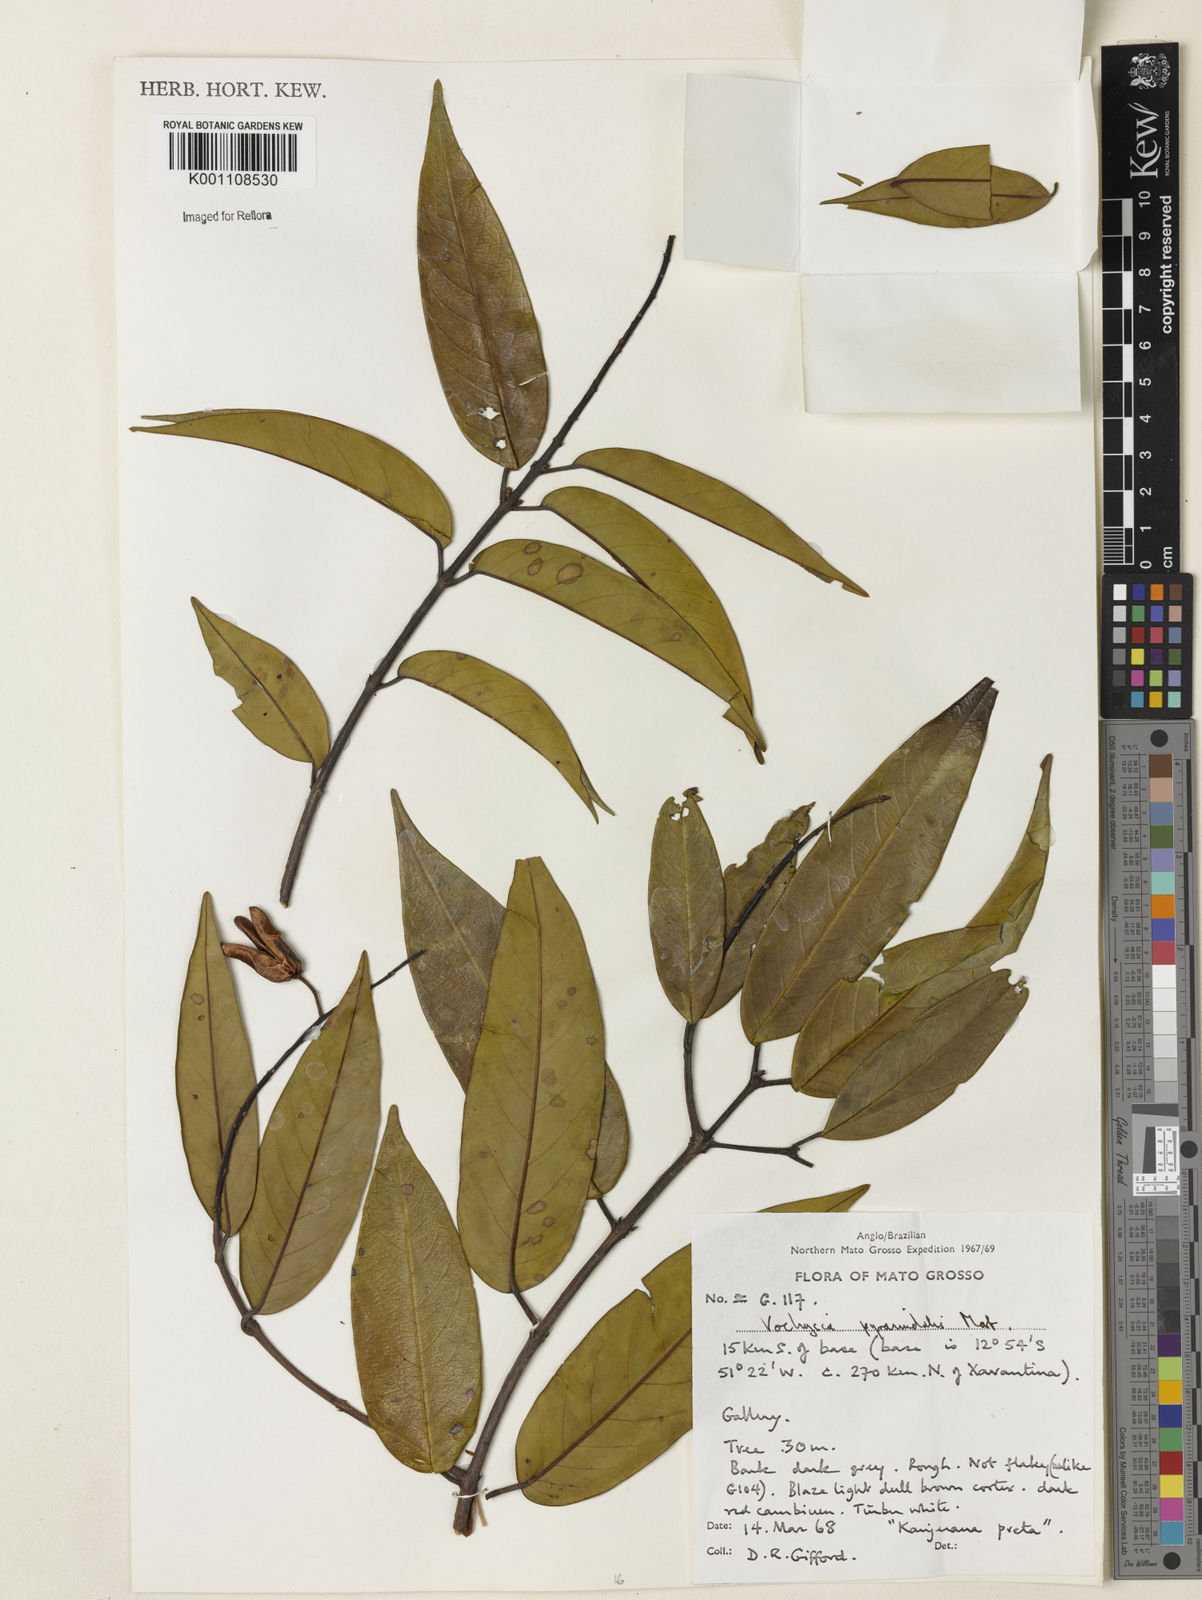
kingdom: Plantae
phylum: Tracheophyta
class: Magnoliopsida
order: Myrtales
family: Vochysiaceae
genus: Vochysia
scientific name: Vochysia pyramidalis
